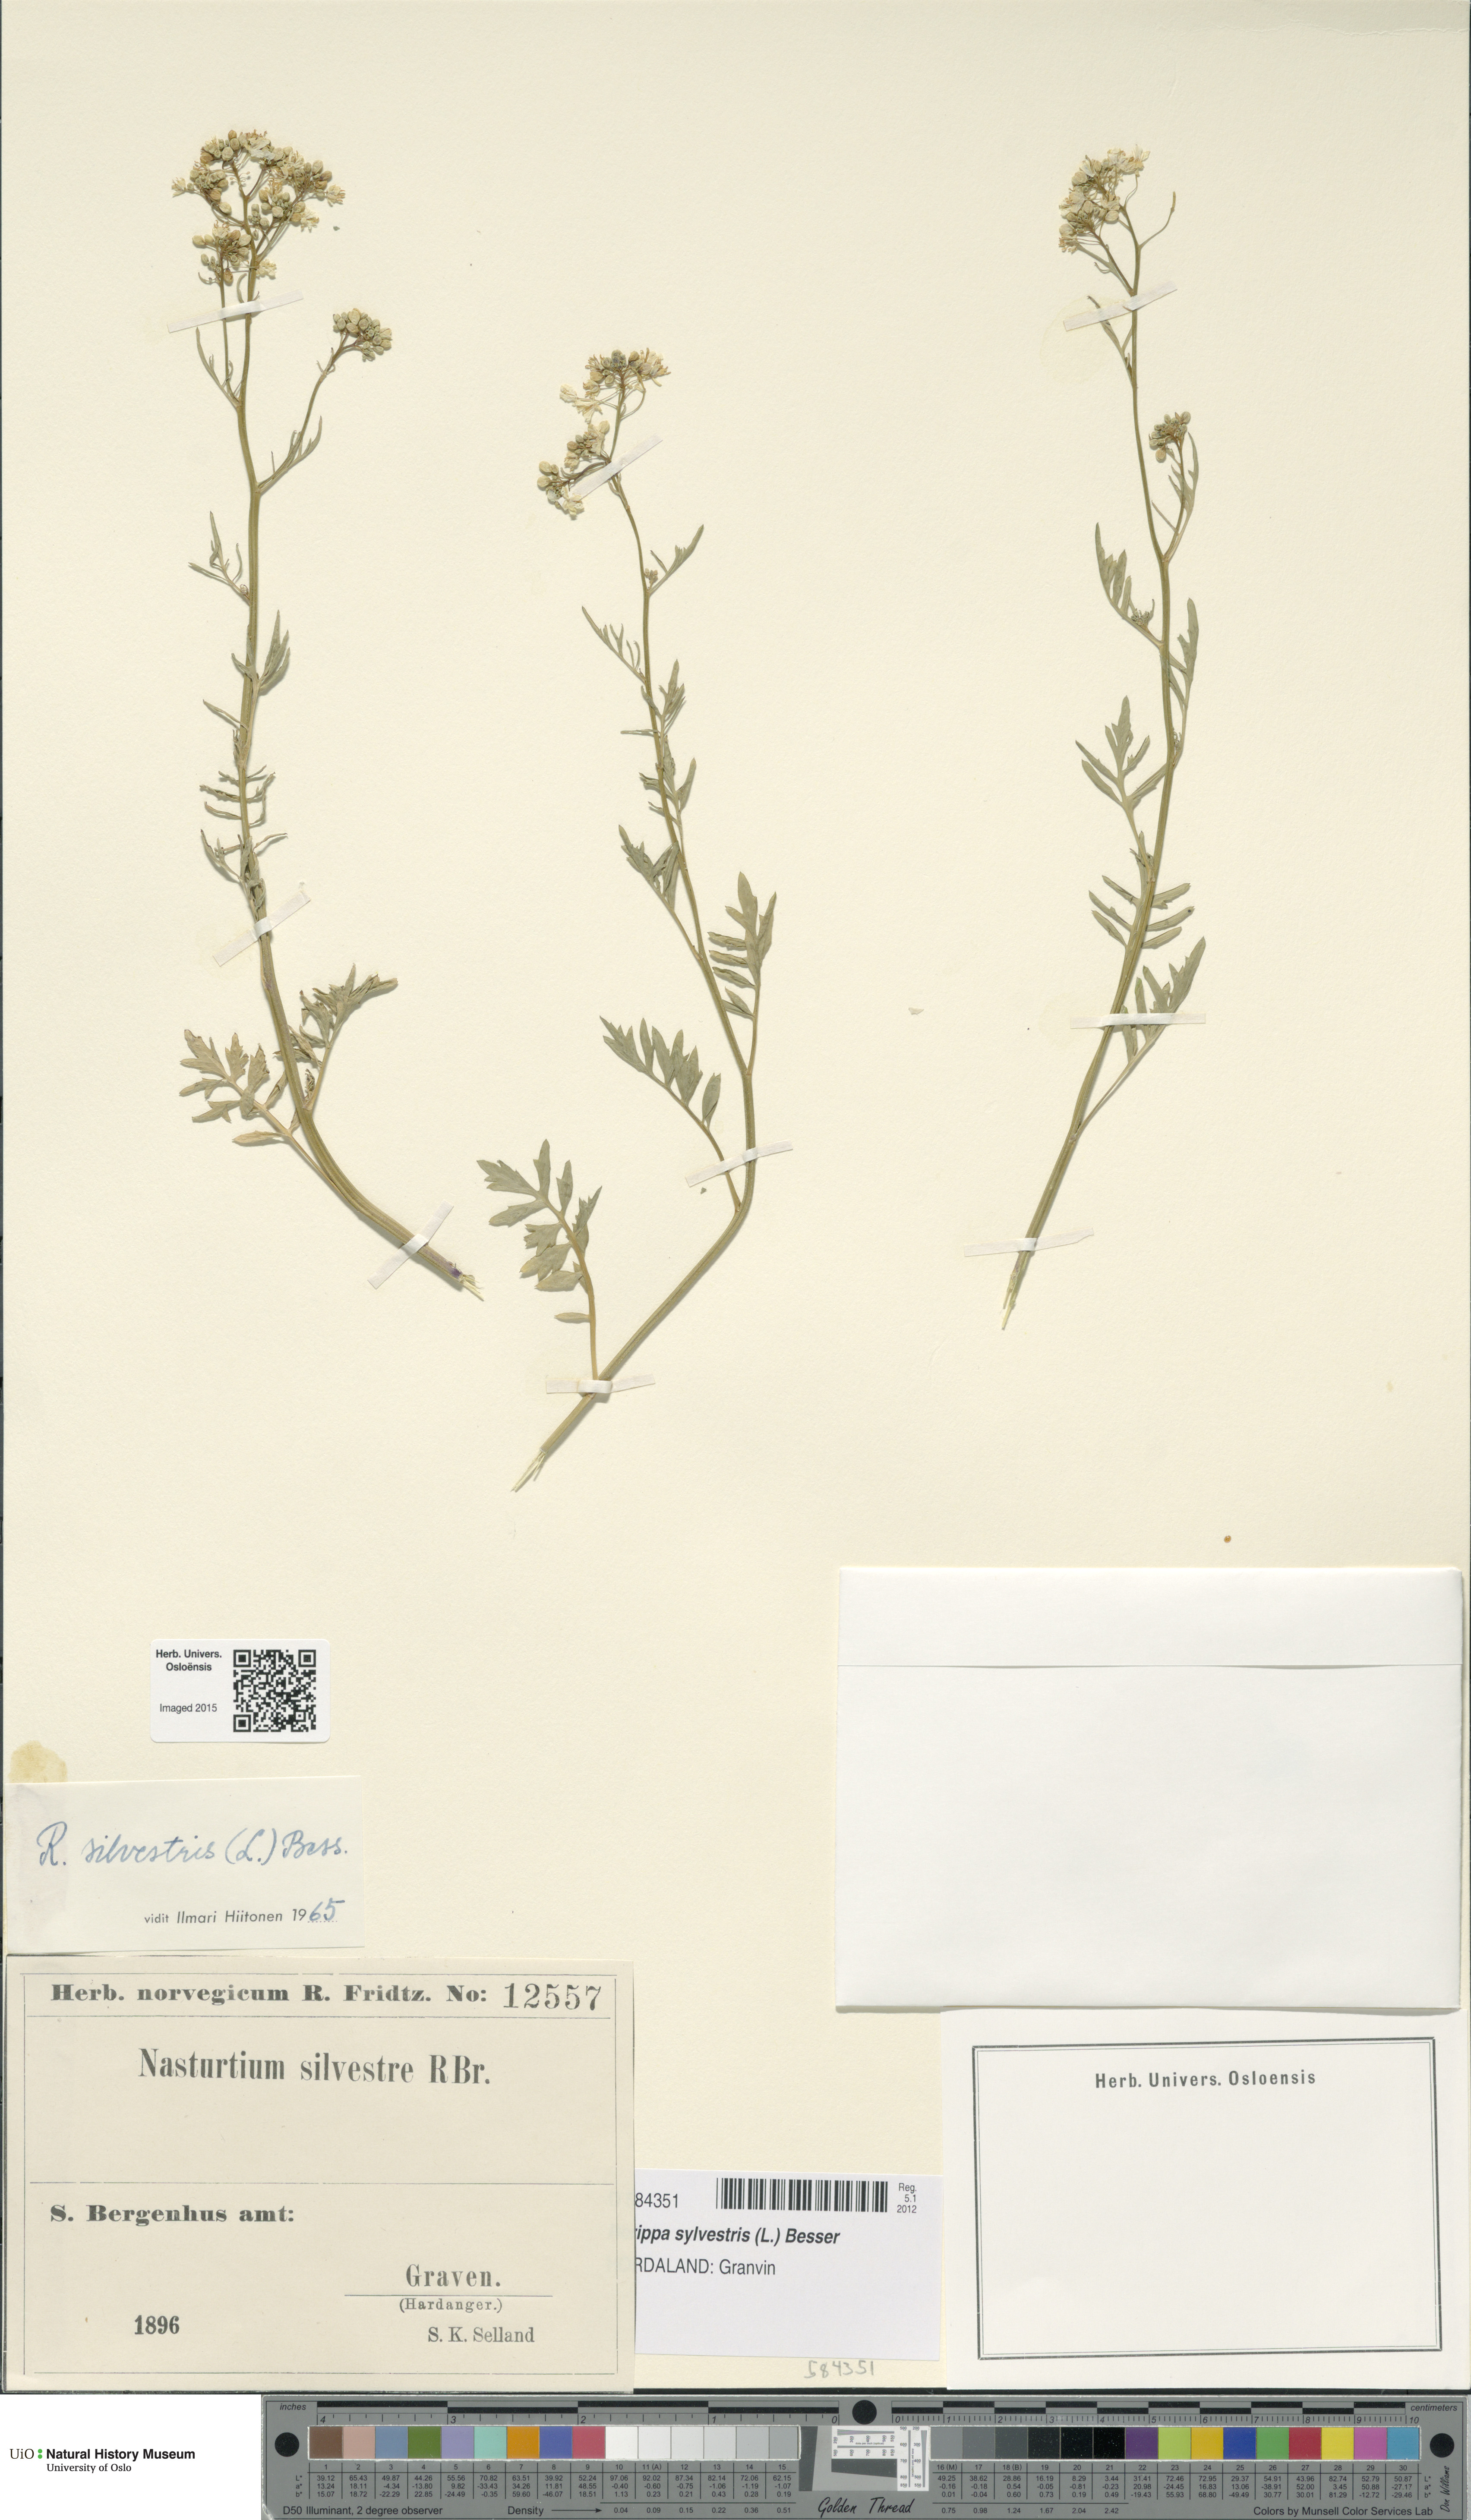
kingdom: Plantae
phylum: Tracheophyta
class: Magnoliopsida
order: Brassicales
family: Brassicaceae
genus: Rorippa
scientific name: Rorippa sylvestris
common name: Creeping yellowcress
